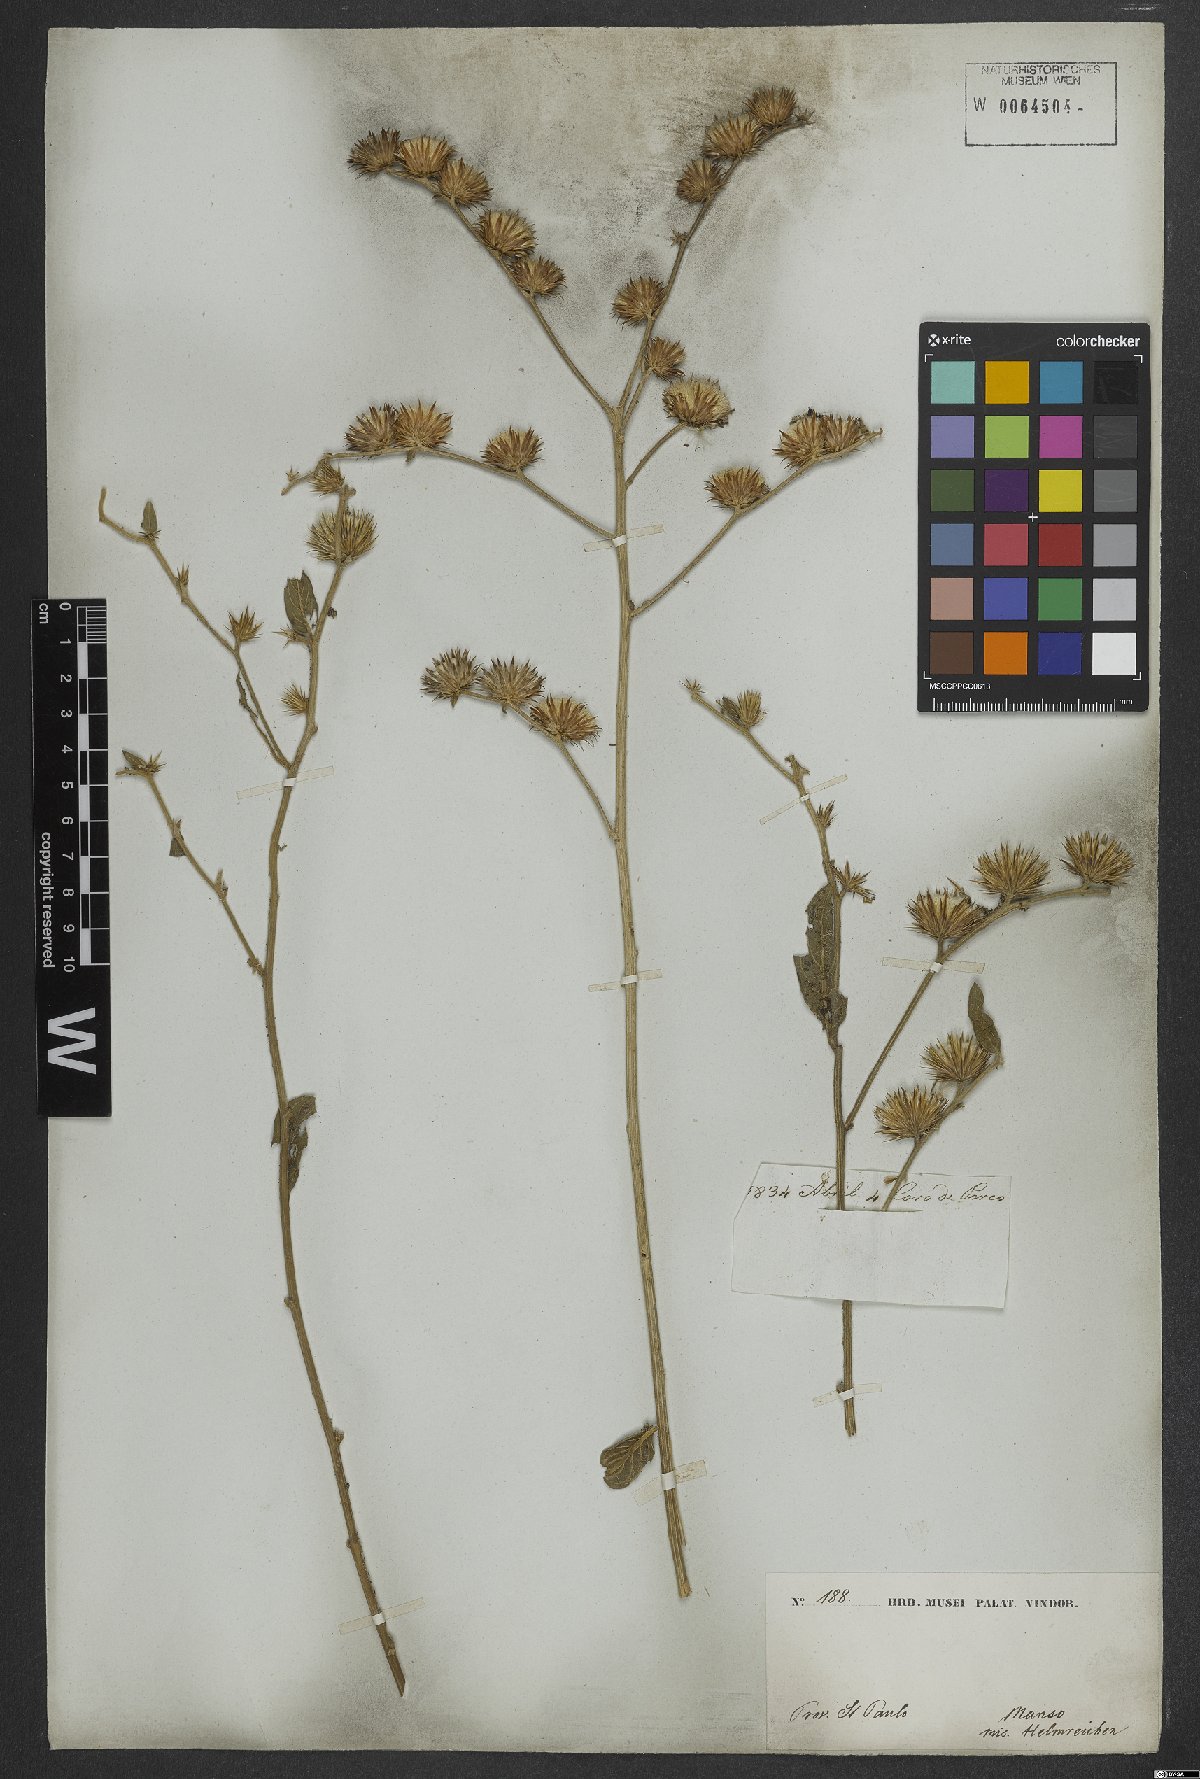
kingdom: Plantae
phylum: Tracheophyta
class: Magnoliopsida
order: Asterales
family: Asteraceae
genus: Lepidaploa
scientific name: Lepidaploa aurea
